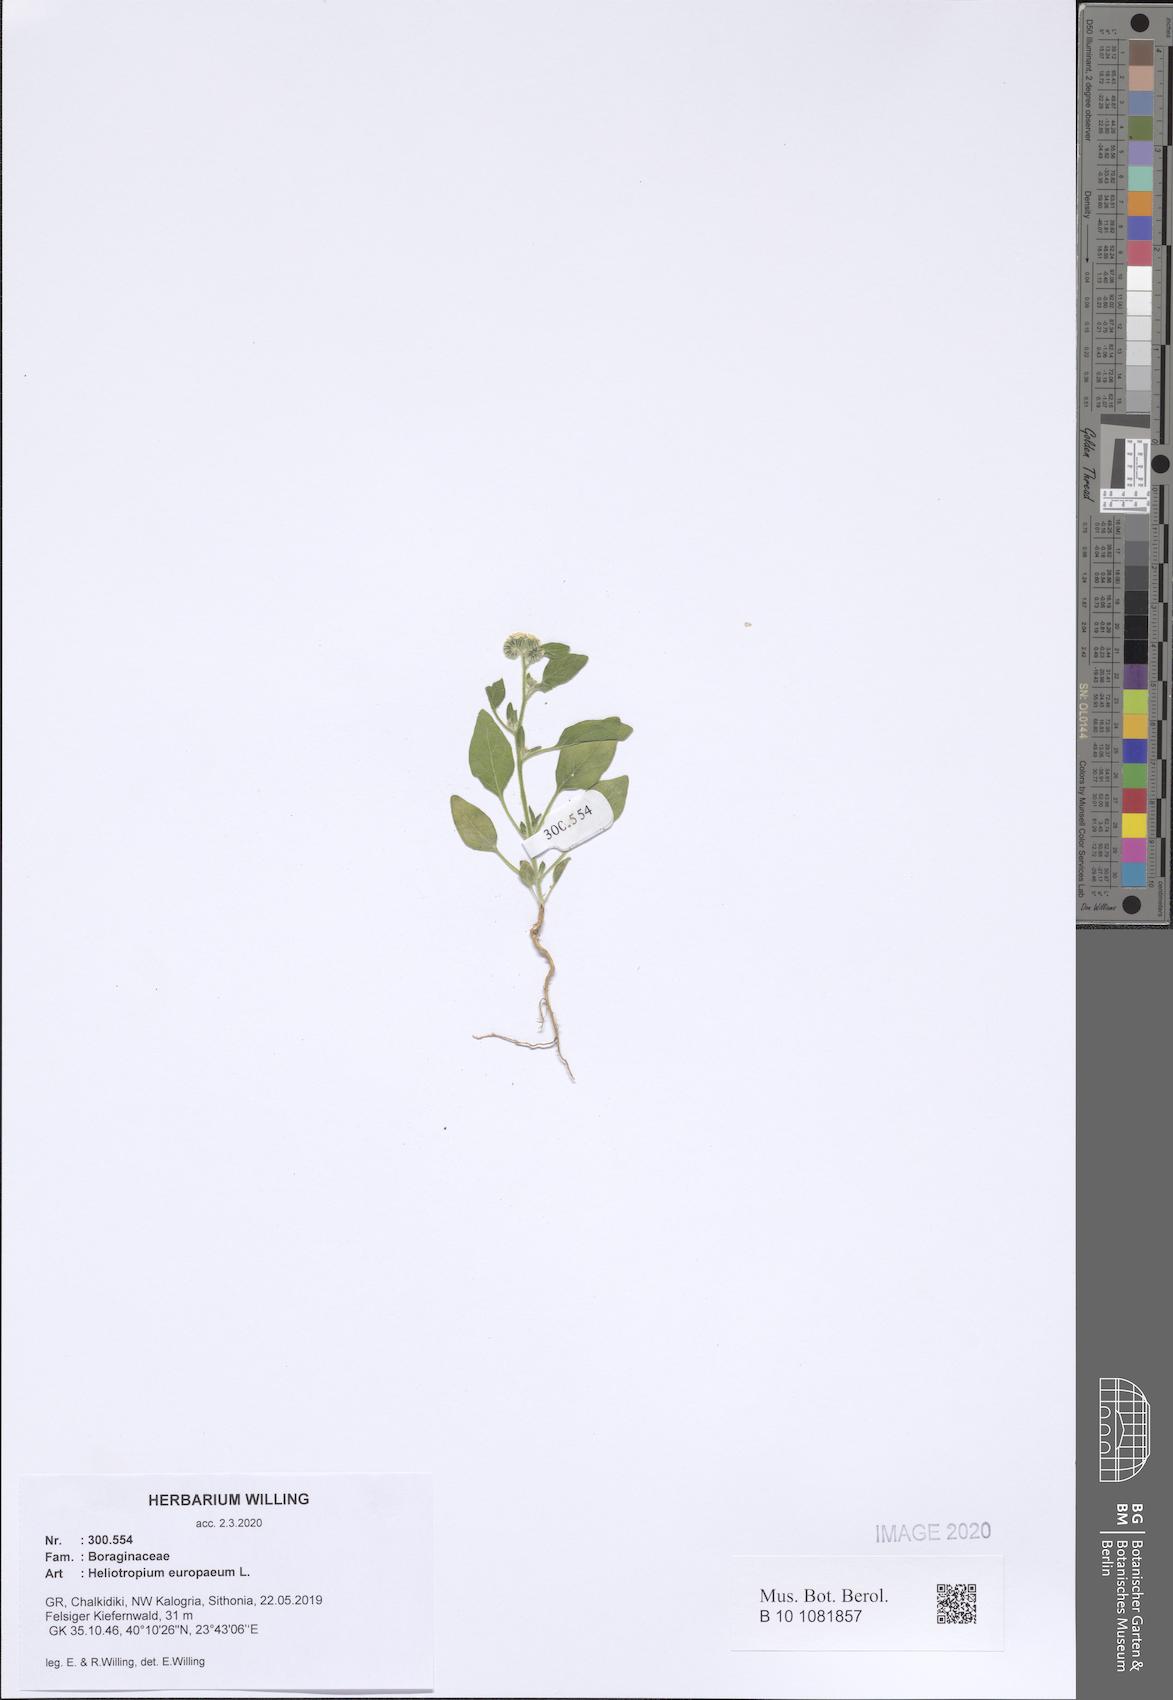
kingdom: Plantae
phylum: Tracheophyta
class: Magnoliopsida
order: Boraginales
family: Heliotropiaceae
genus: Heliotropium
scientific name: Heliotropium europaeum
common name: European heliotrope
